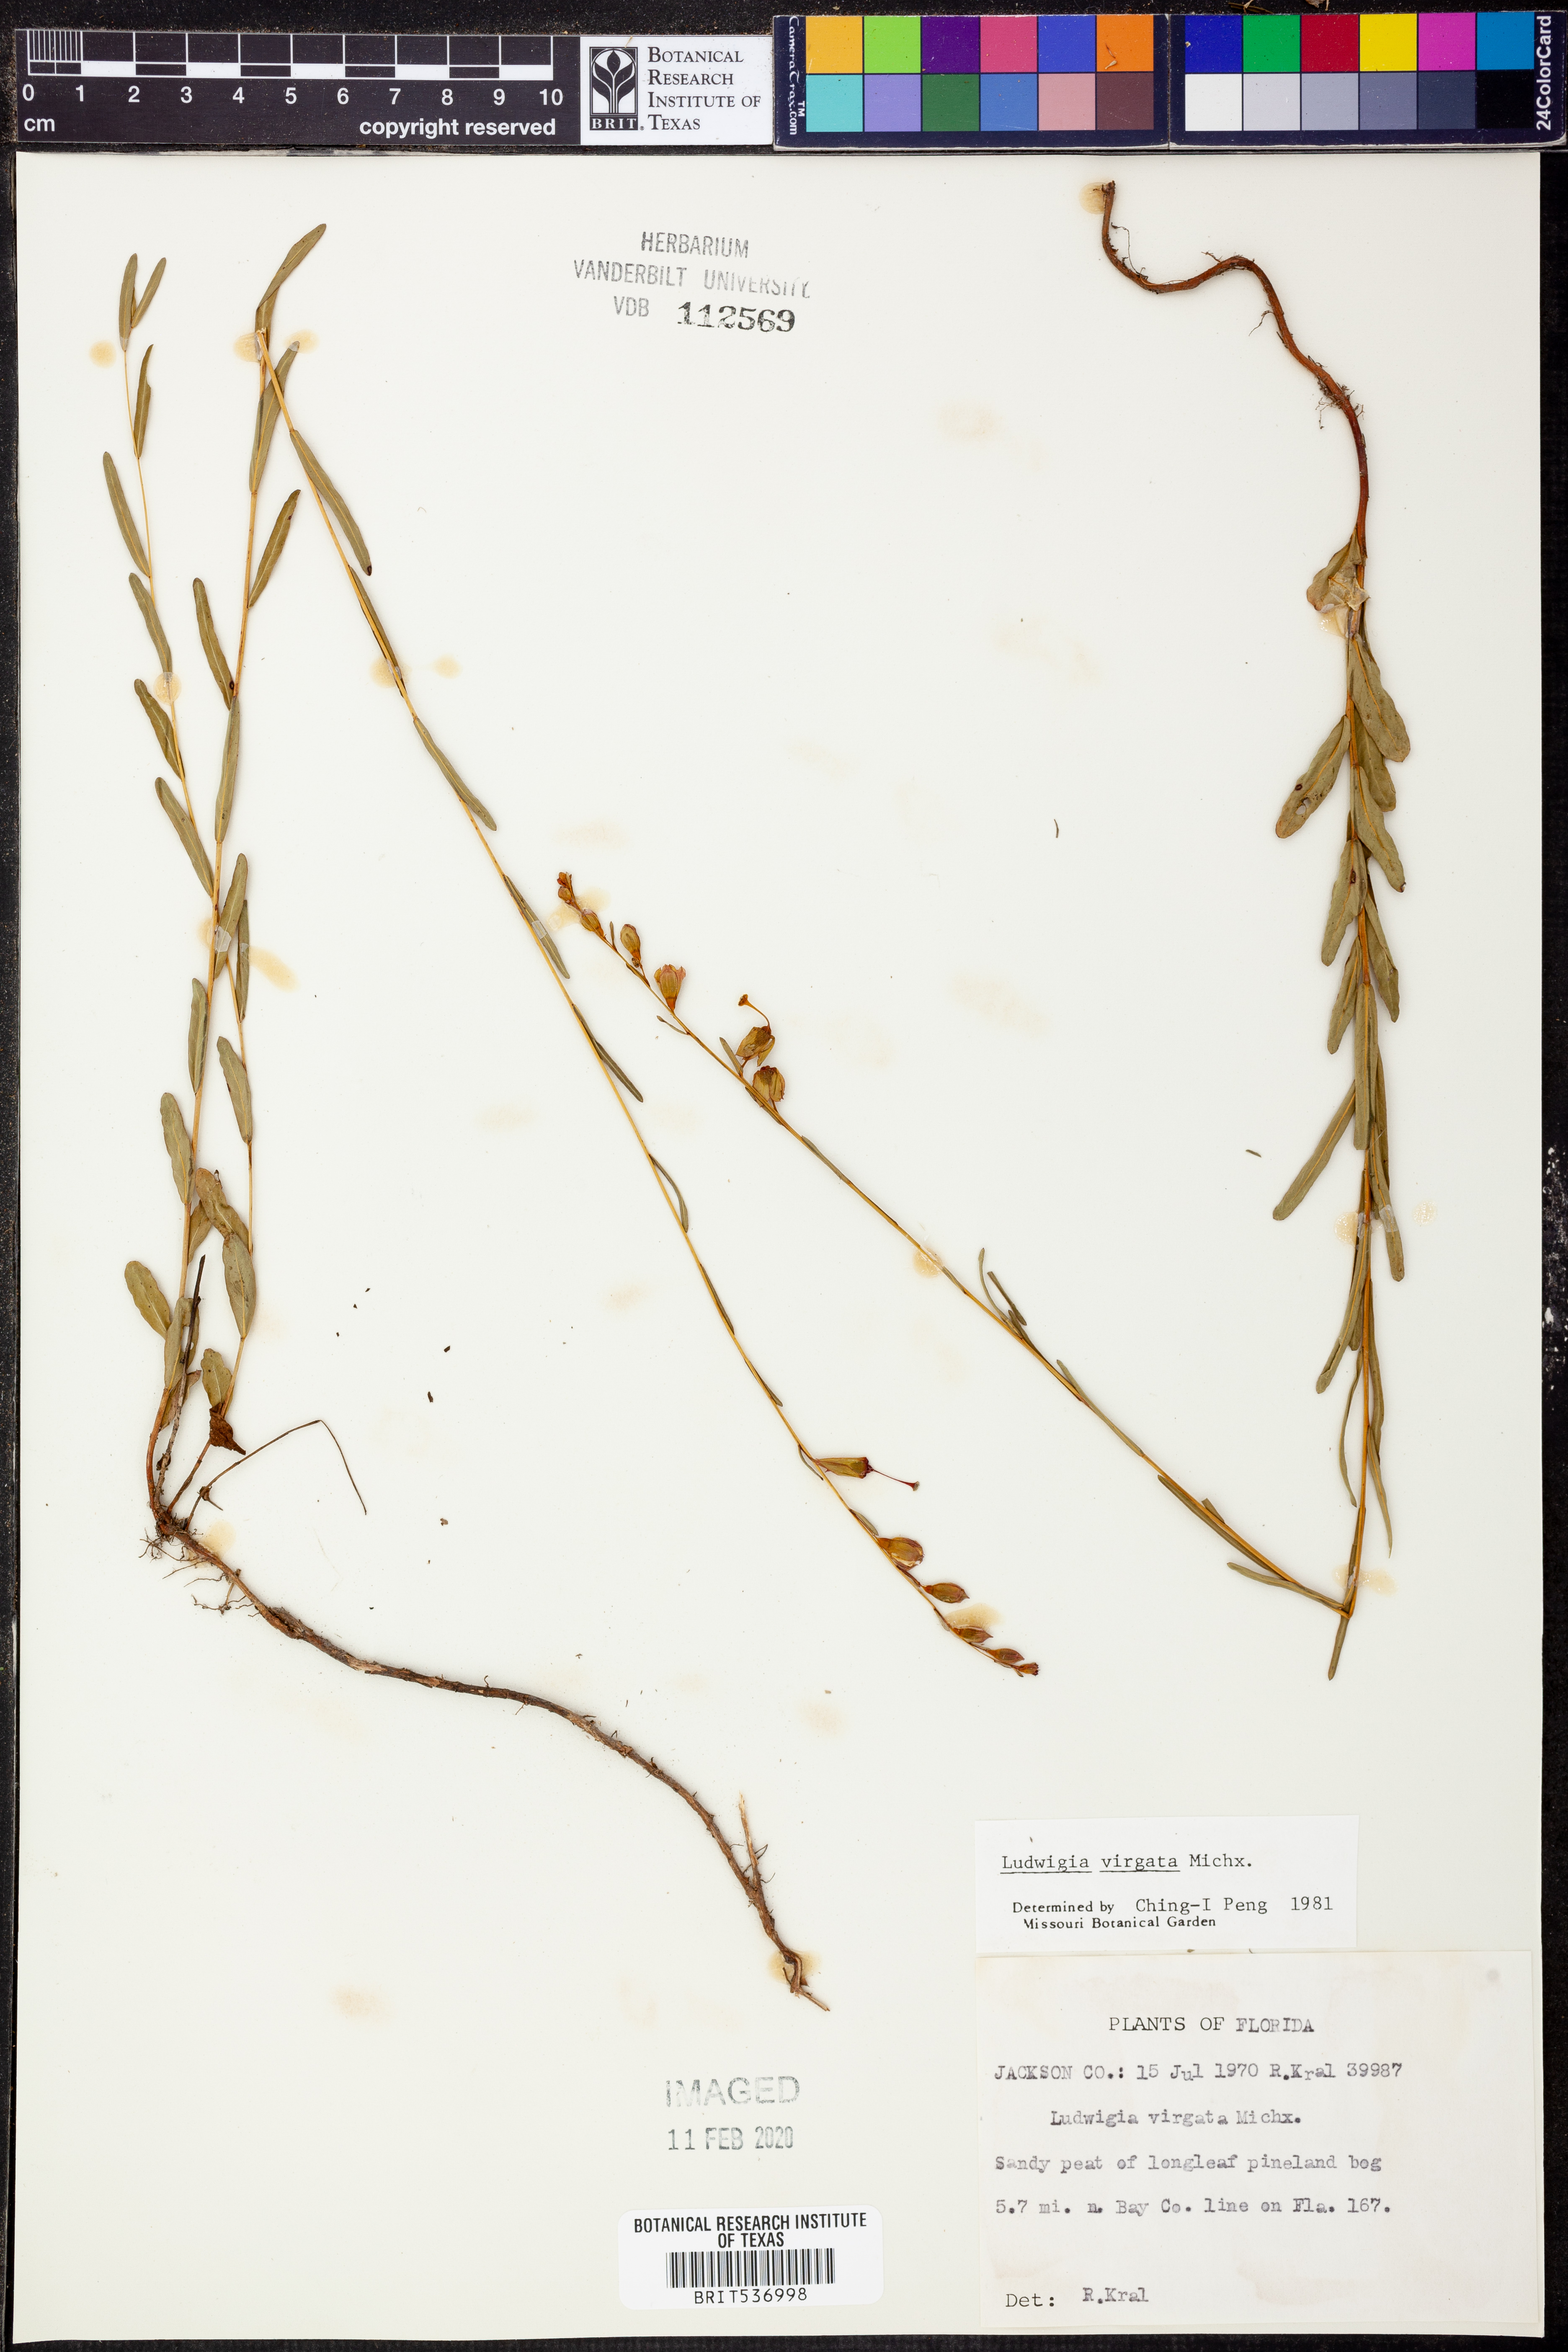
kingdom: Plantae
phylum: Tracheophyta
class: Magnoliopsida
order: Myrtales
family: Onagraceae
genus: Ludwigia
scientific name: Ludwigia virgata
